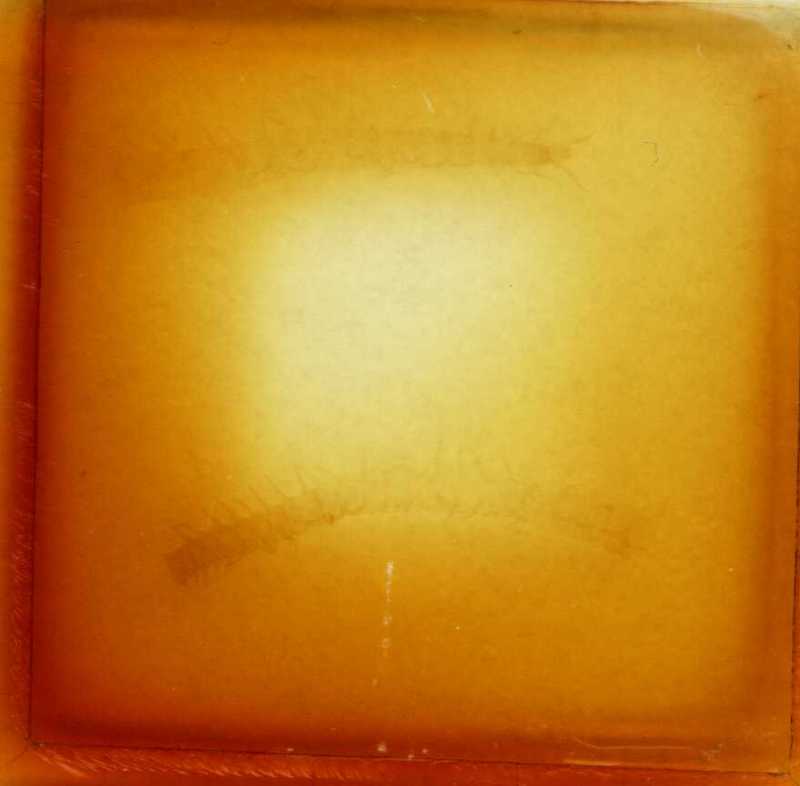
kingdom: Animalia
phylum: Arthropoda
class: Chilopoda
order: Geophilomorpha
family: Schendylidae
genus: Schendylunguis
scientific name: Schendylunguis
